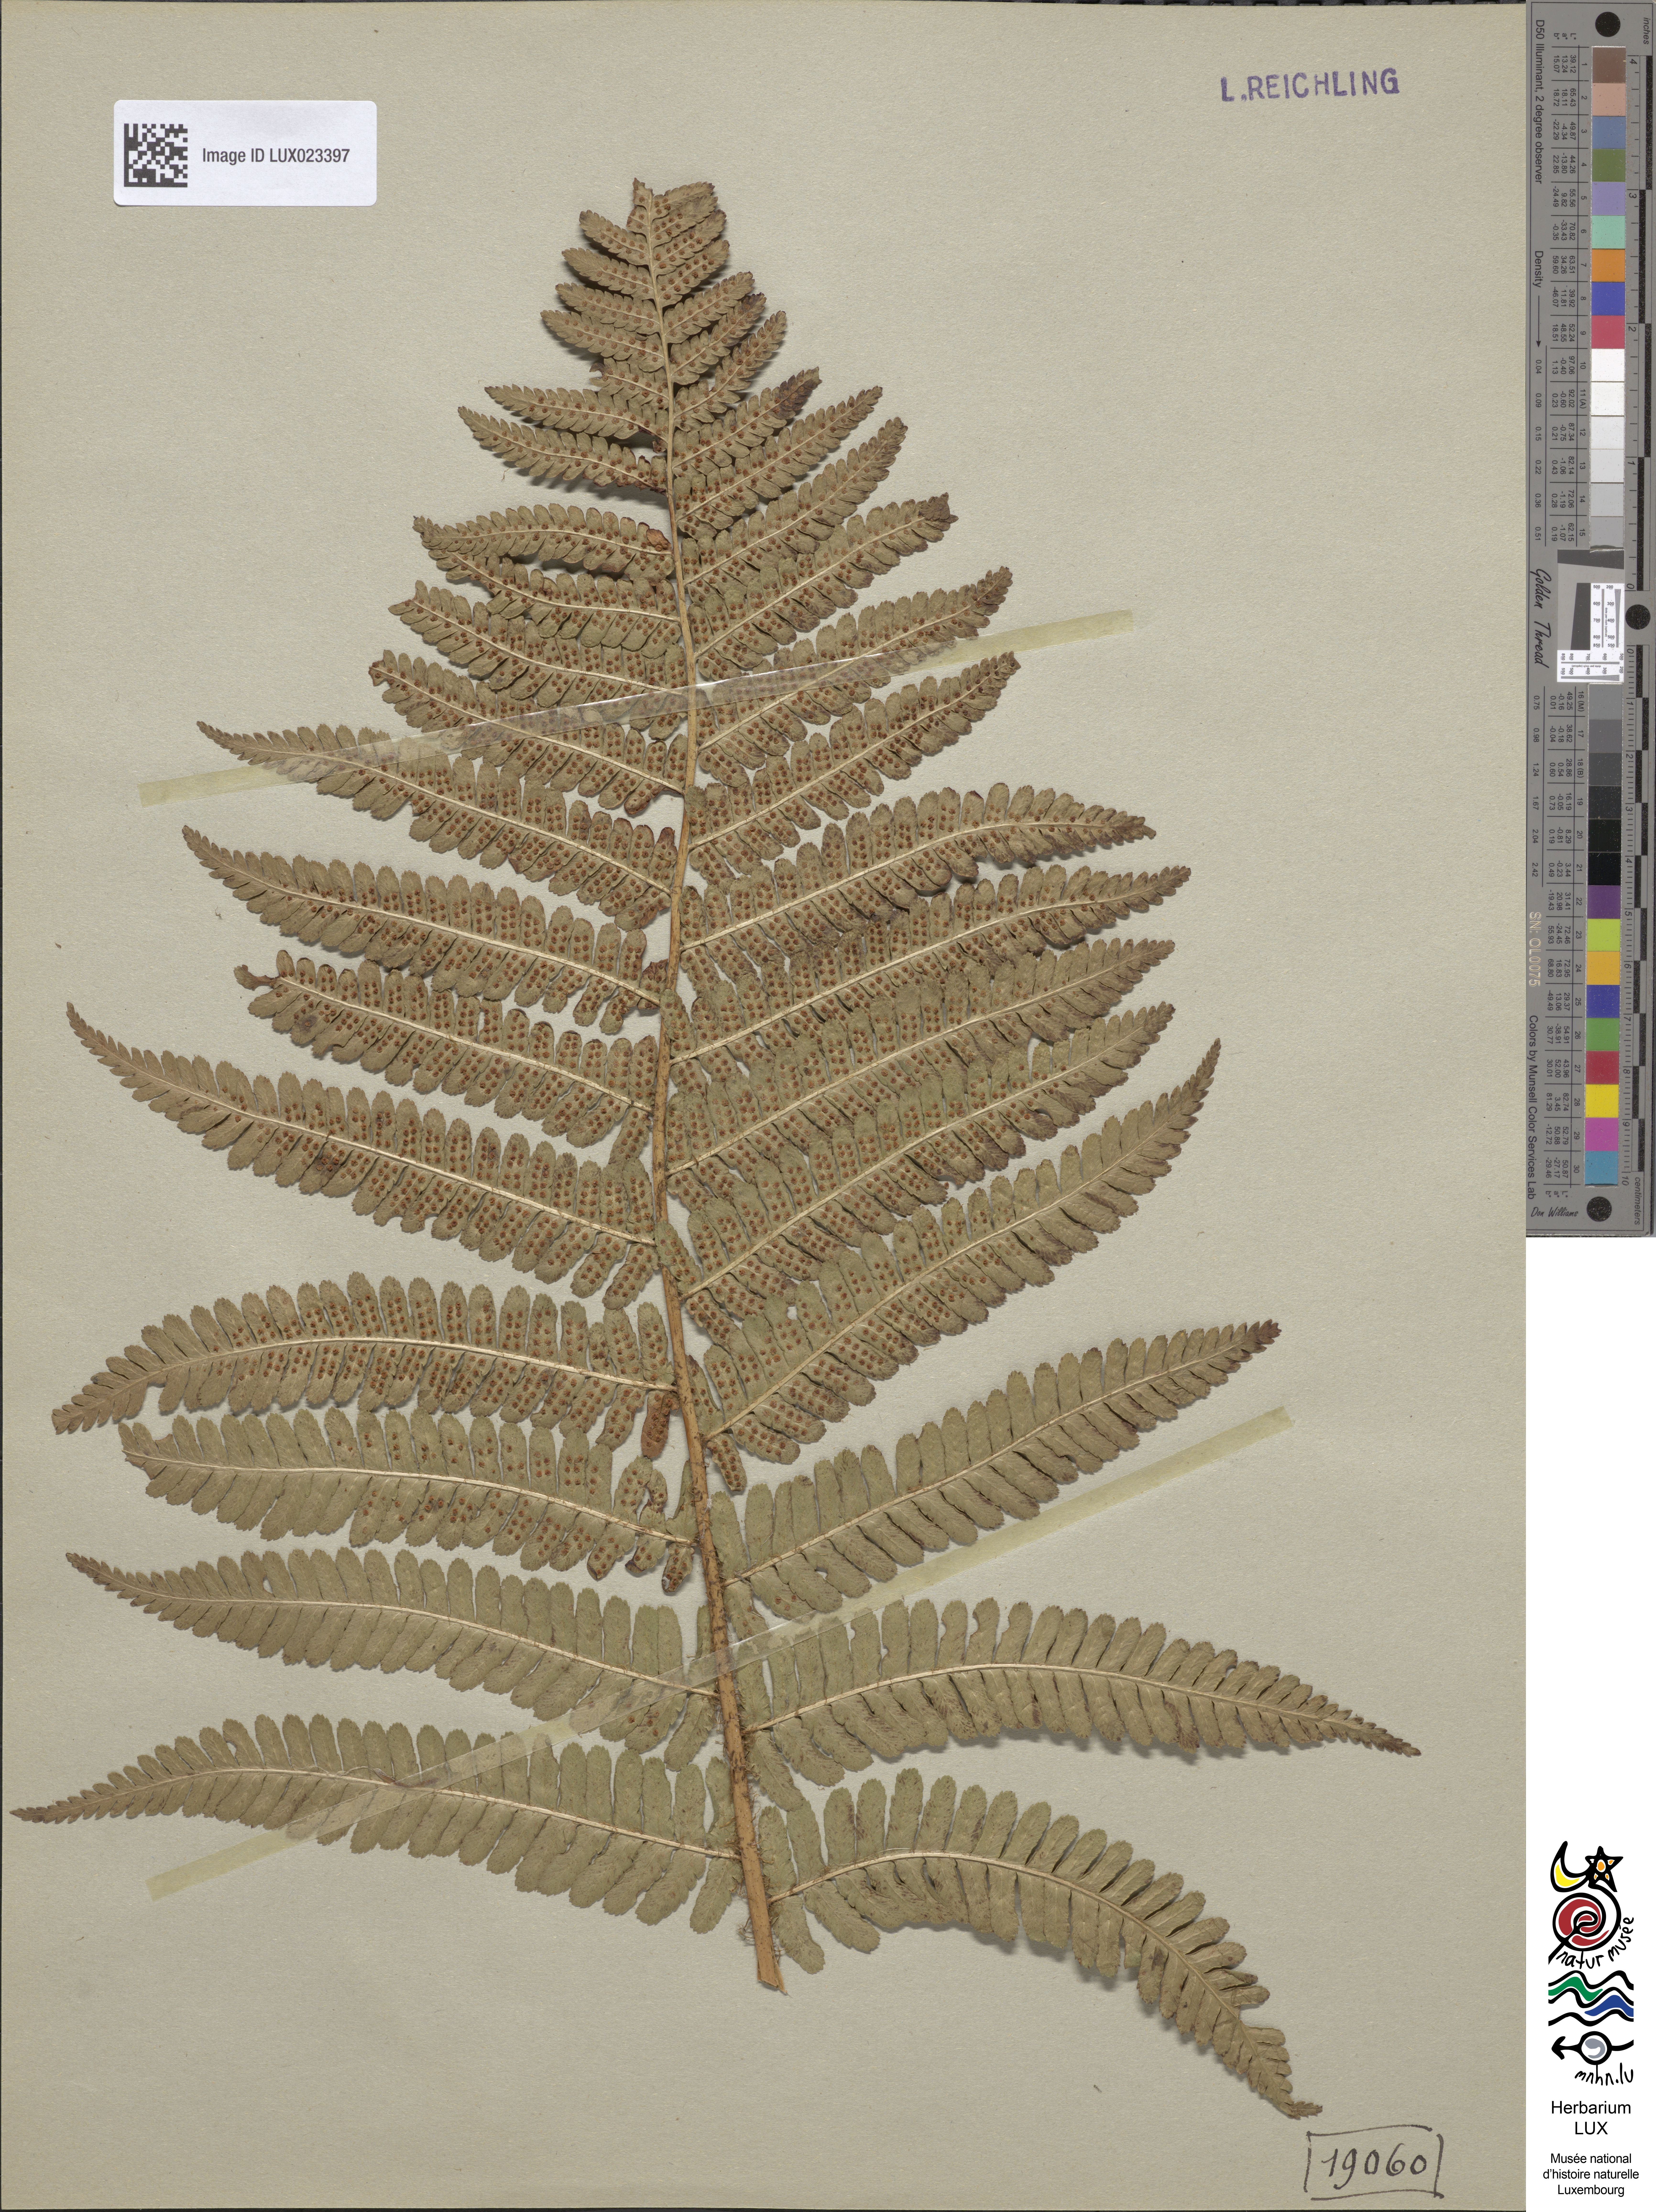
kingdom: Plantae
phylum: Tracheophyta
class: Polypodiopsida
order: Polypodiales
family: Dryopteridaceae
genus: Dryopteris
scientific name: Dryopteris
